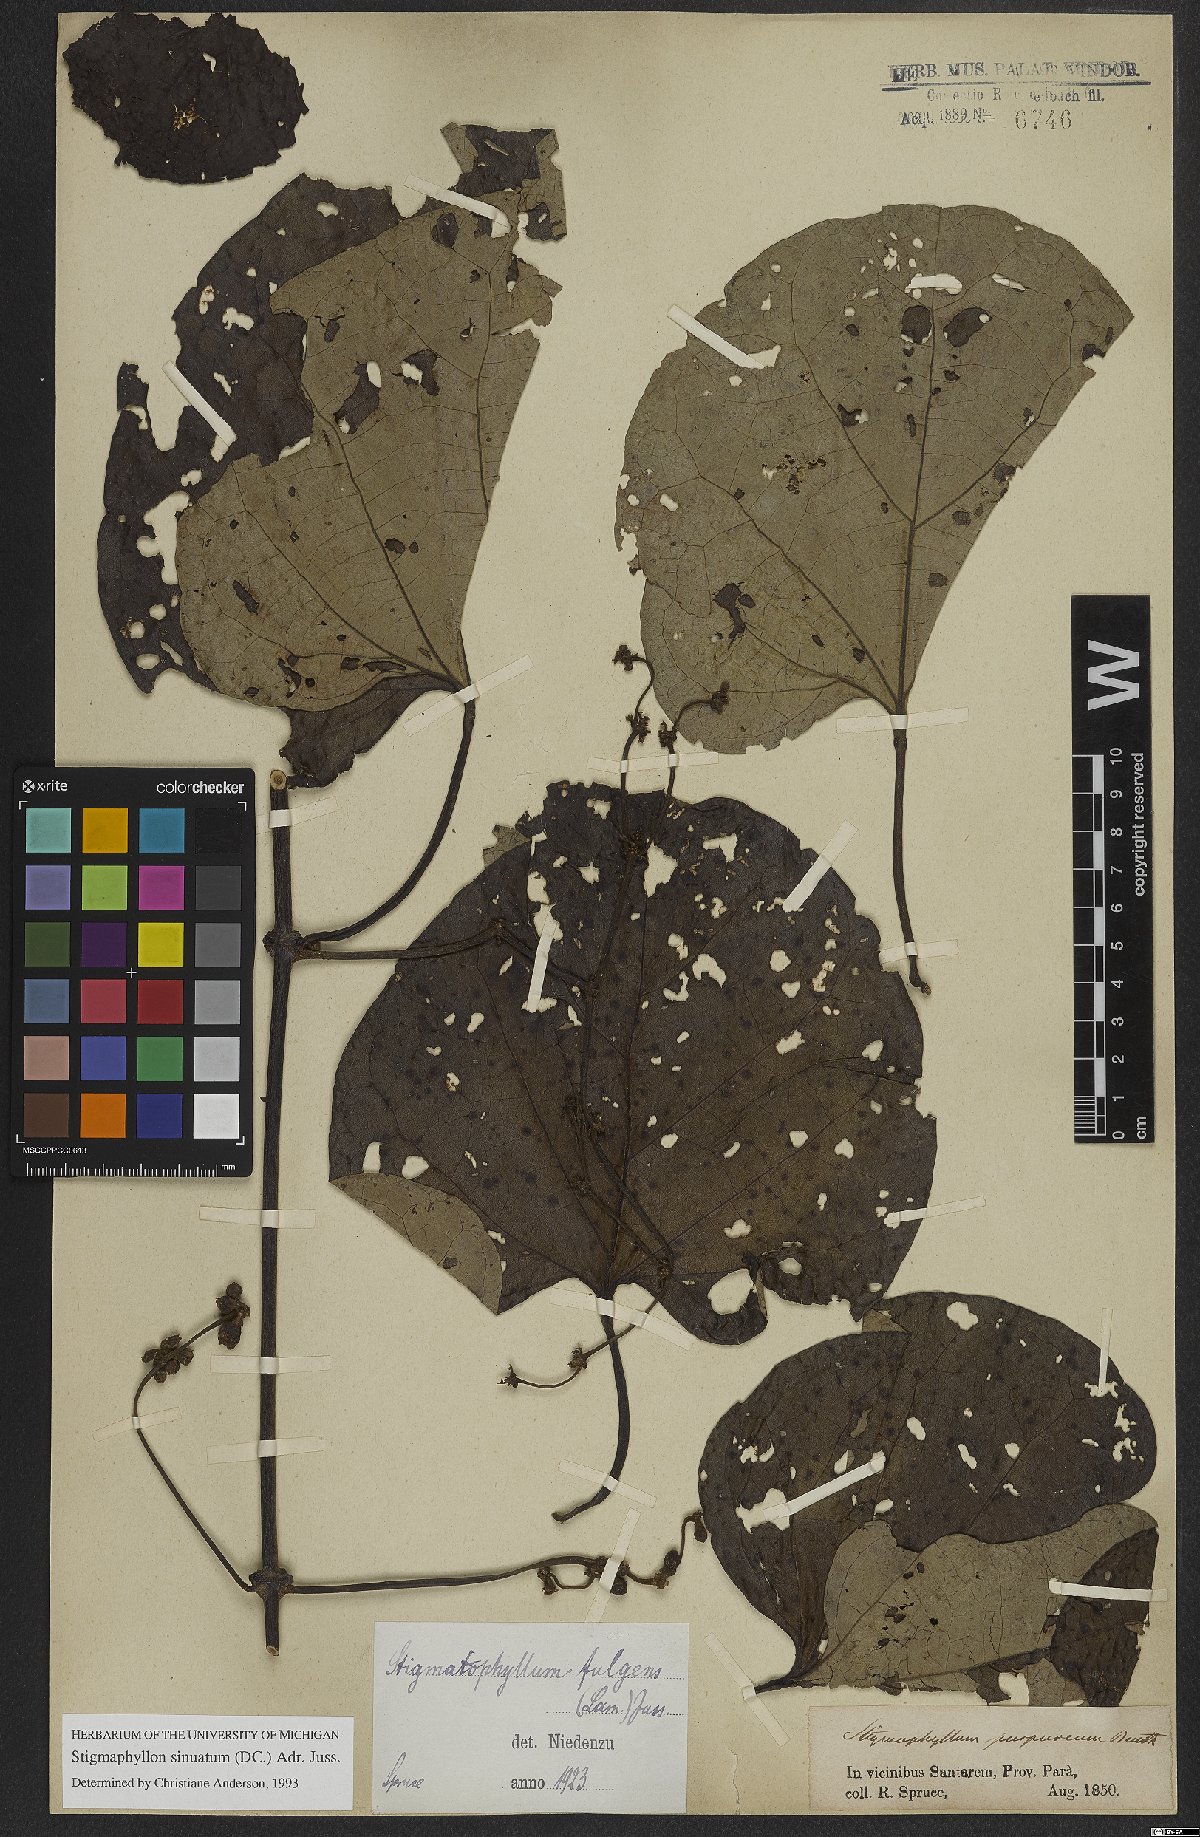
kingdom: Plantae
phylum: Tracheophyta
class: Magnoliopsida
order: Malpighiales
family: Malpighiaceae
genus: Stigmaphyllon
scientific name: Stigmaphyllon sinuatum
